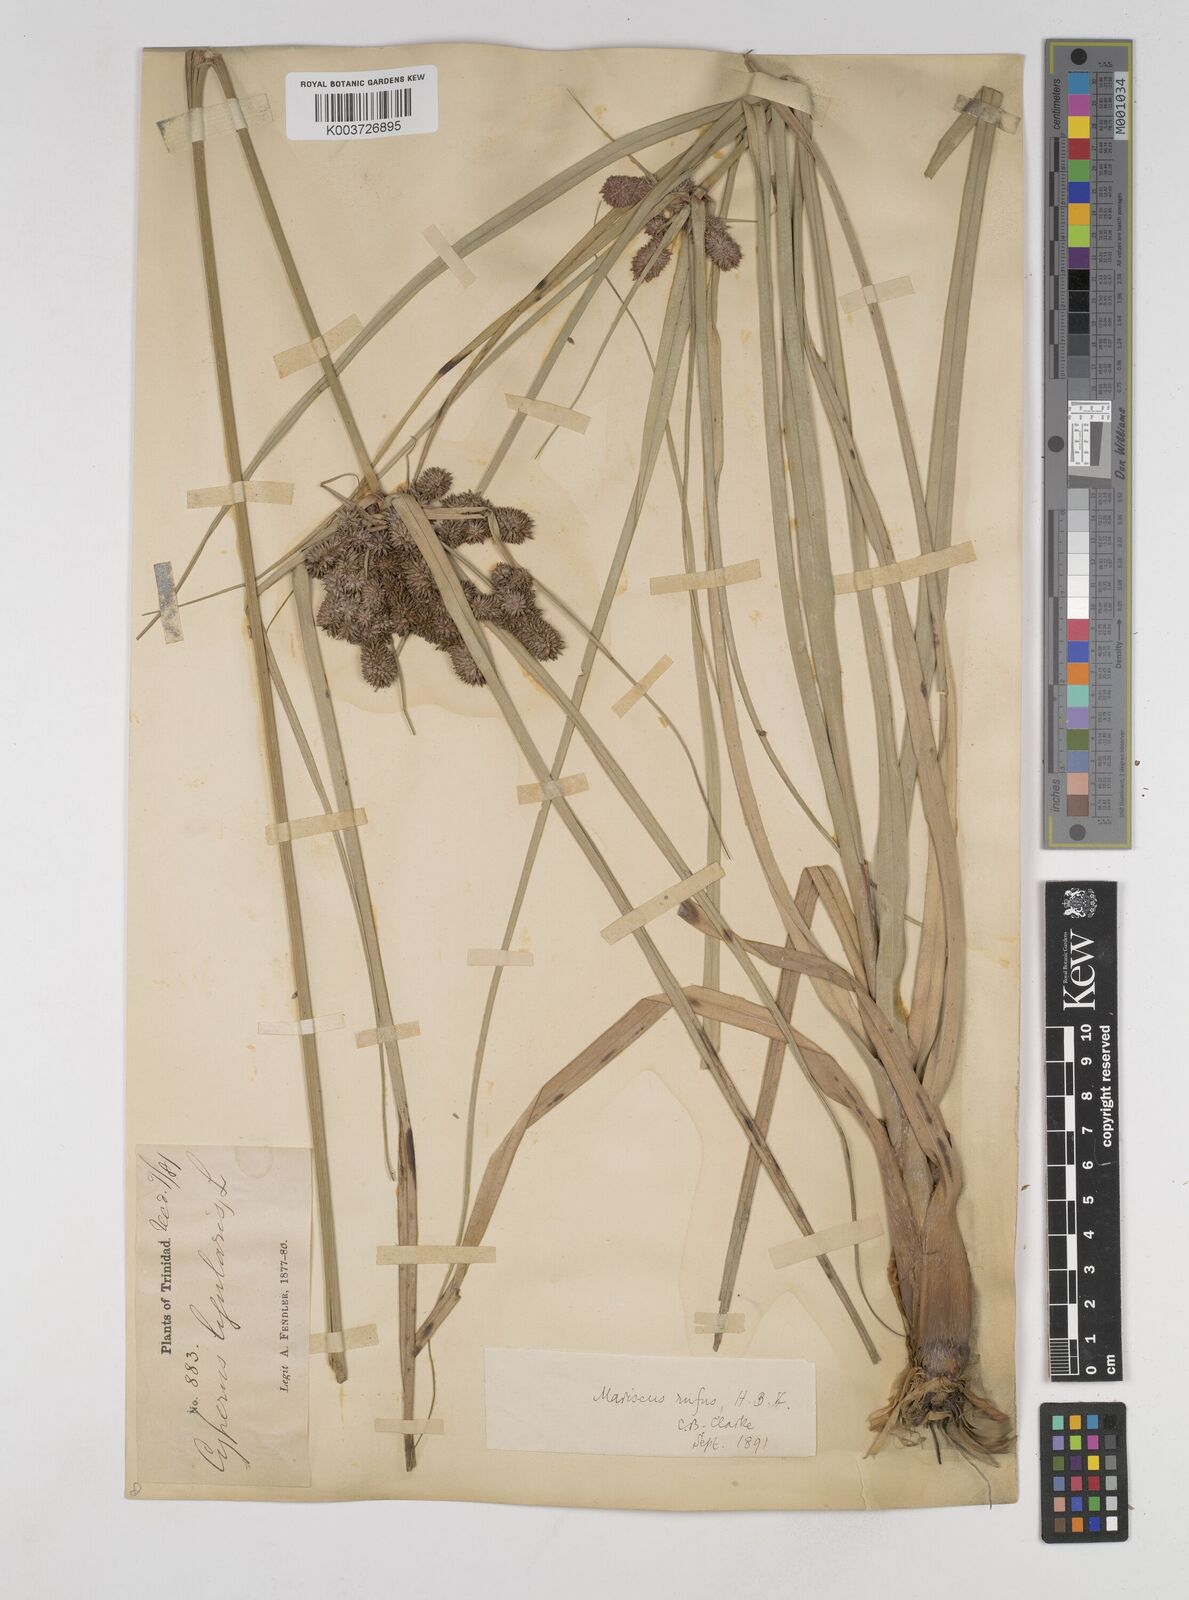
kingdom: Plantae
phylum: Tracheophyta
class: Liliopsida
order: Poales
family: Cyperaceae
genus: Cyperus
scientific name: Cyperus ligularis
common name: Swamp flat sedge
